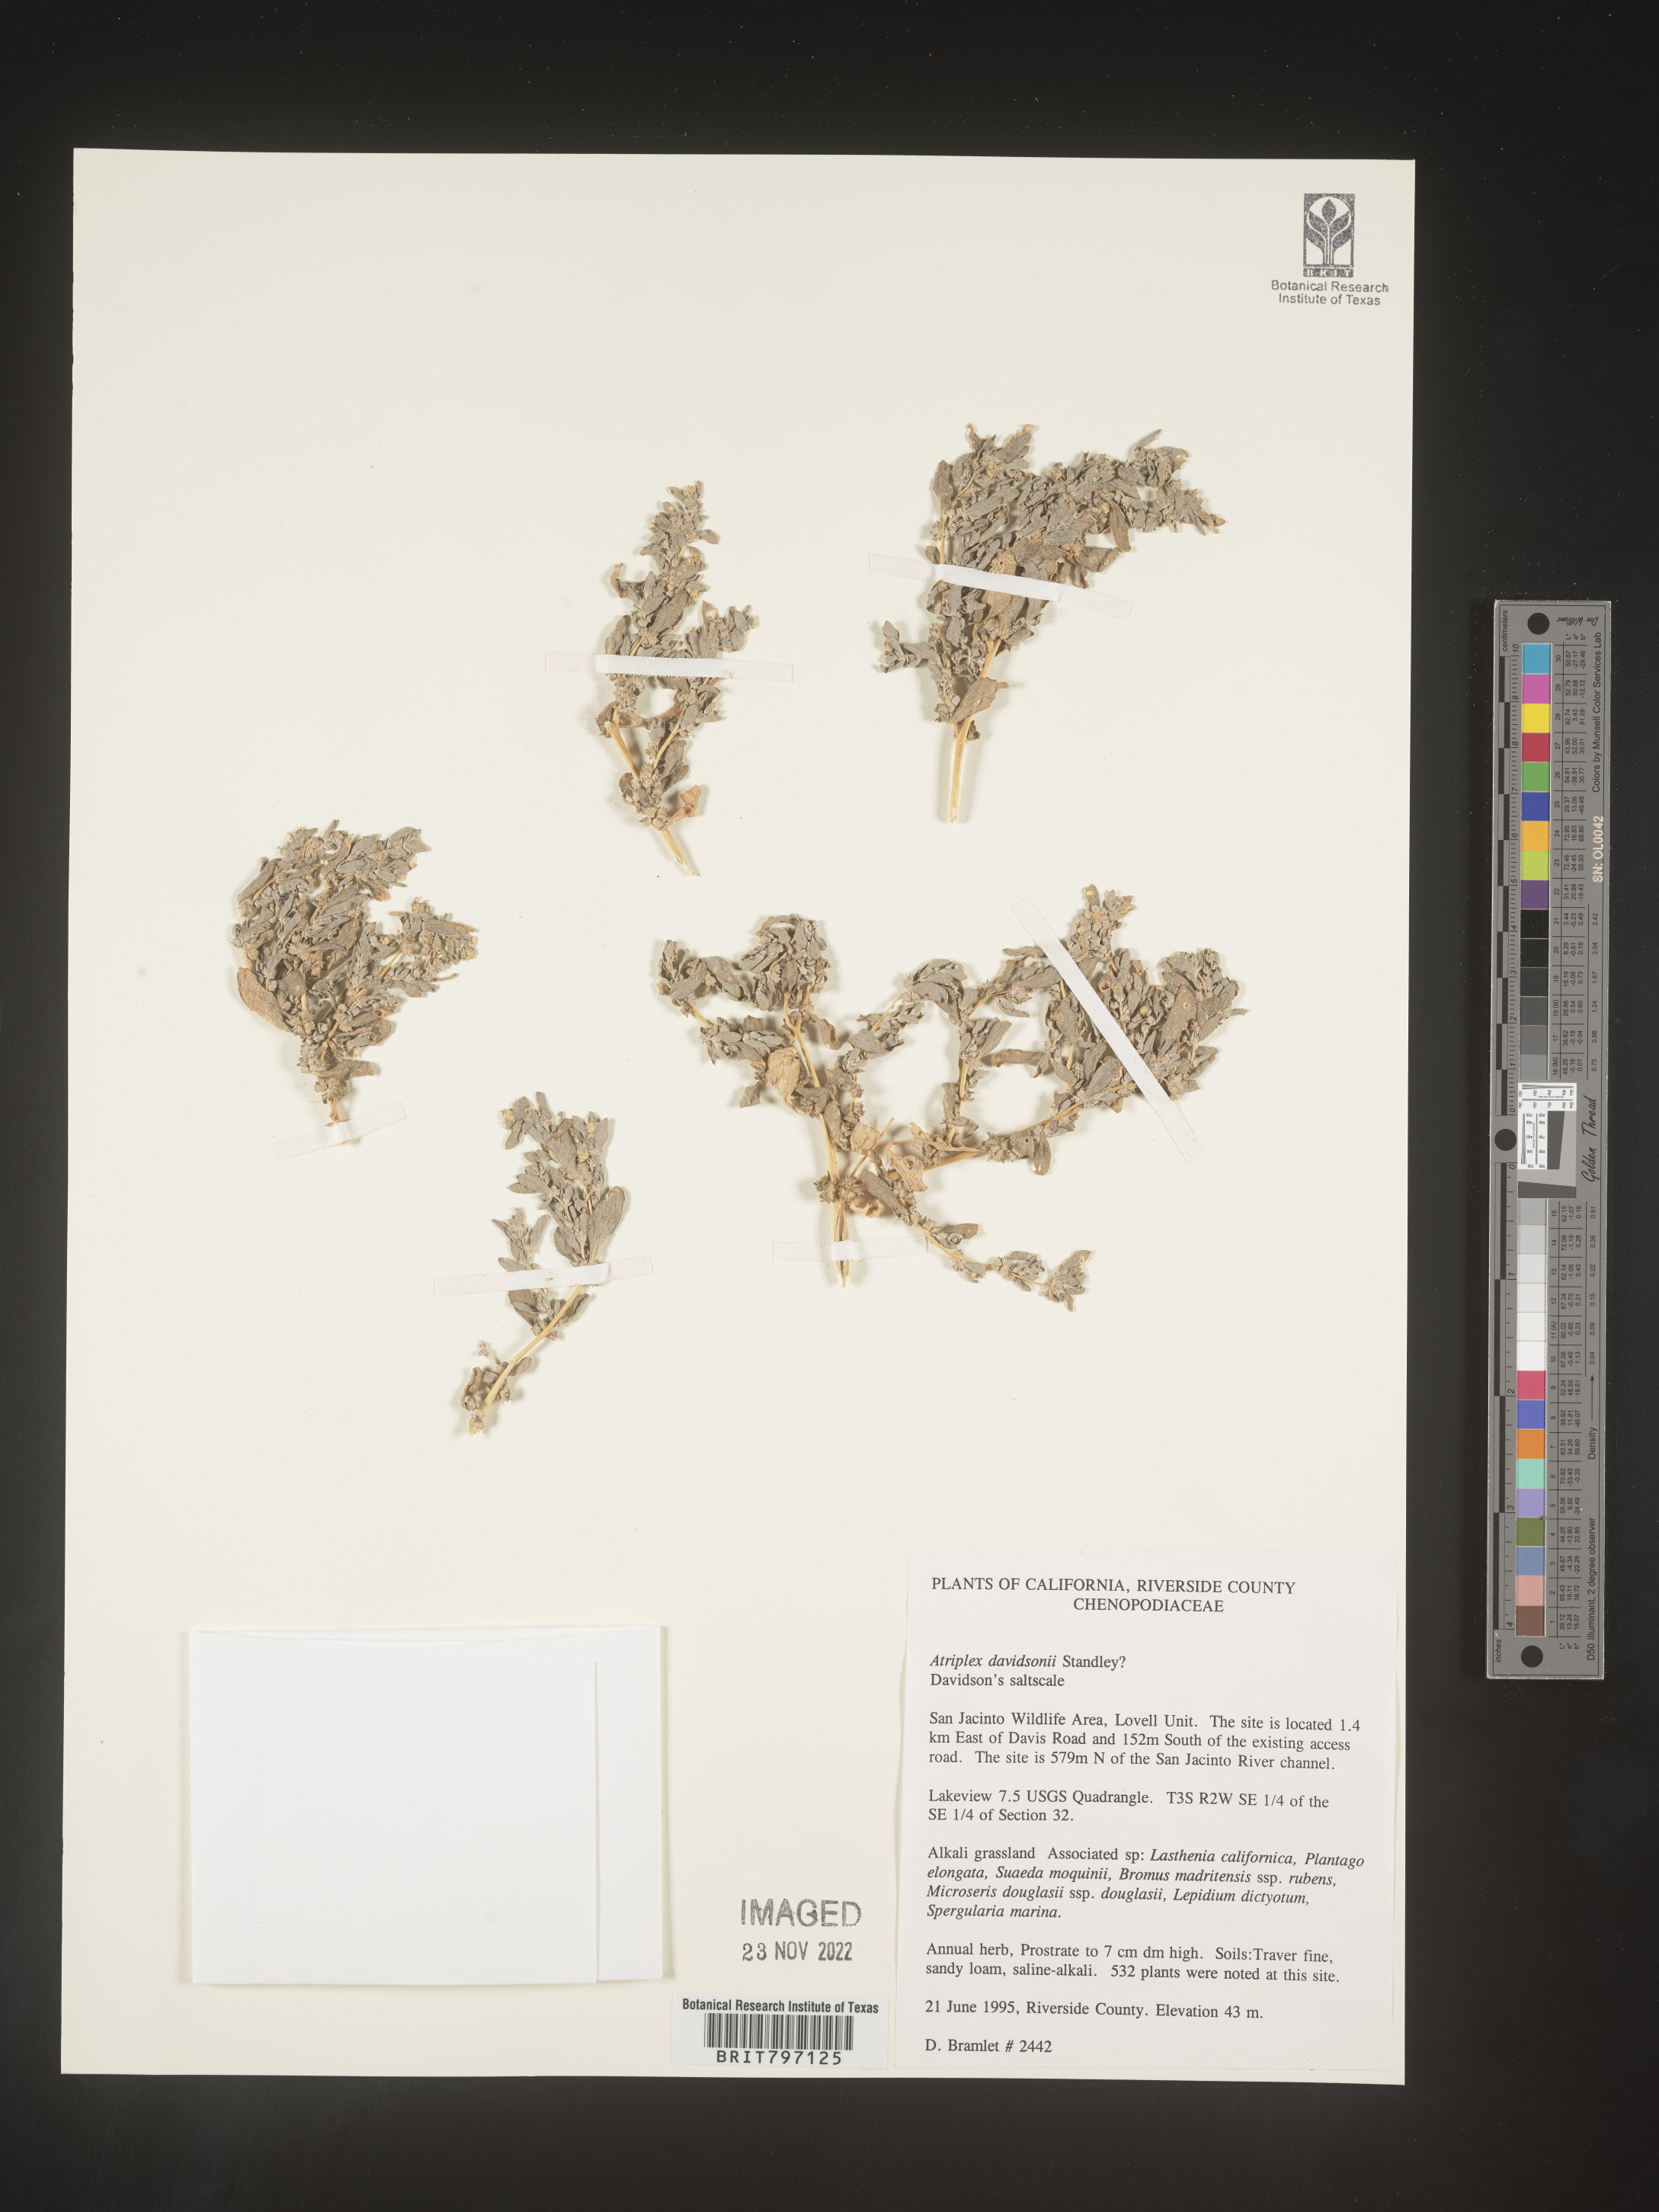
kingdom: Plantae
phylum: Tracheophyta
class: Magnoliopsida
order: Caryophyllales
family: Amaranthaceae
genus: Atriplex
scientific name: Atriplex
